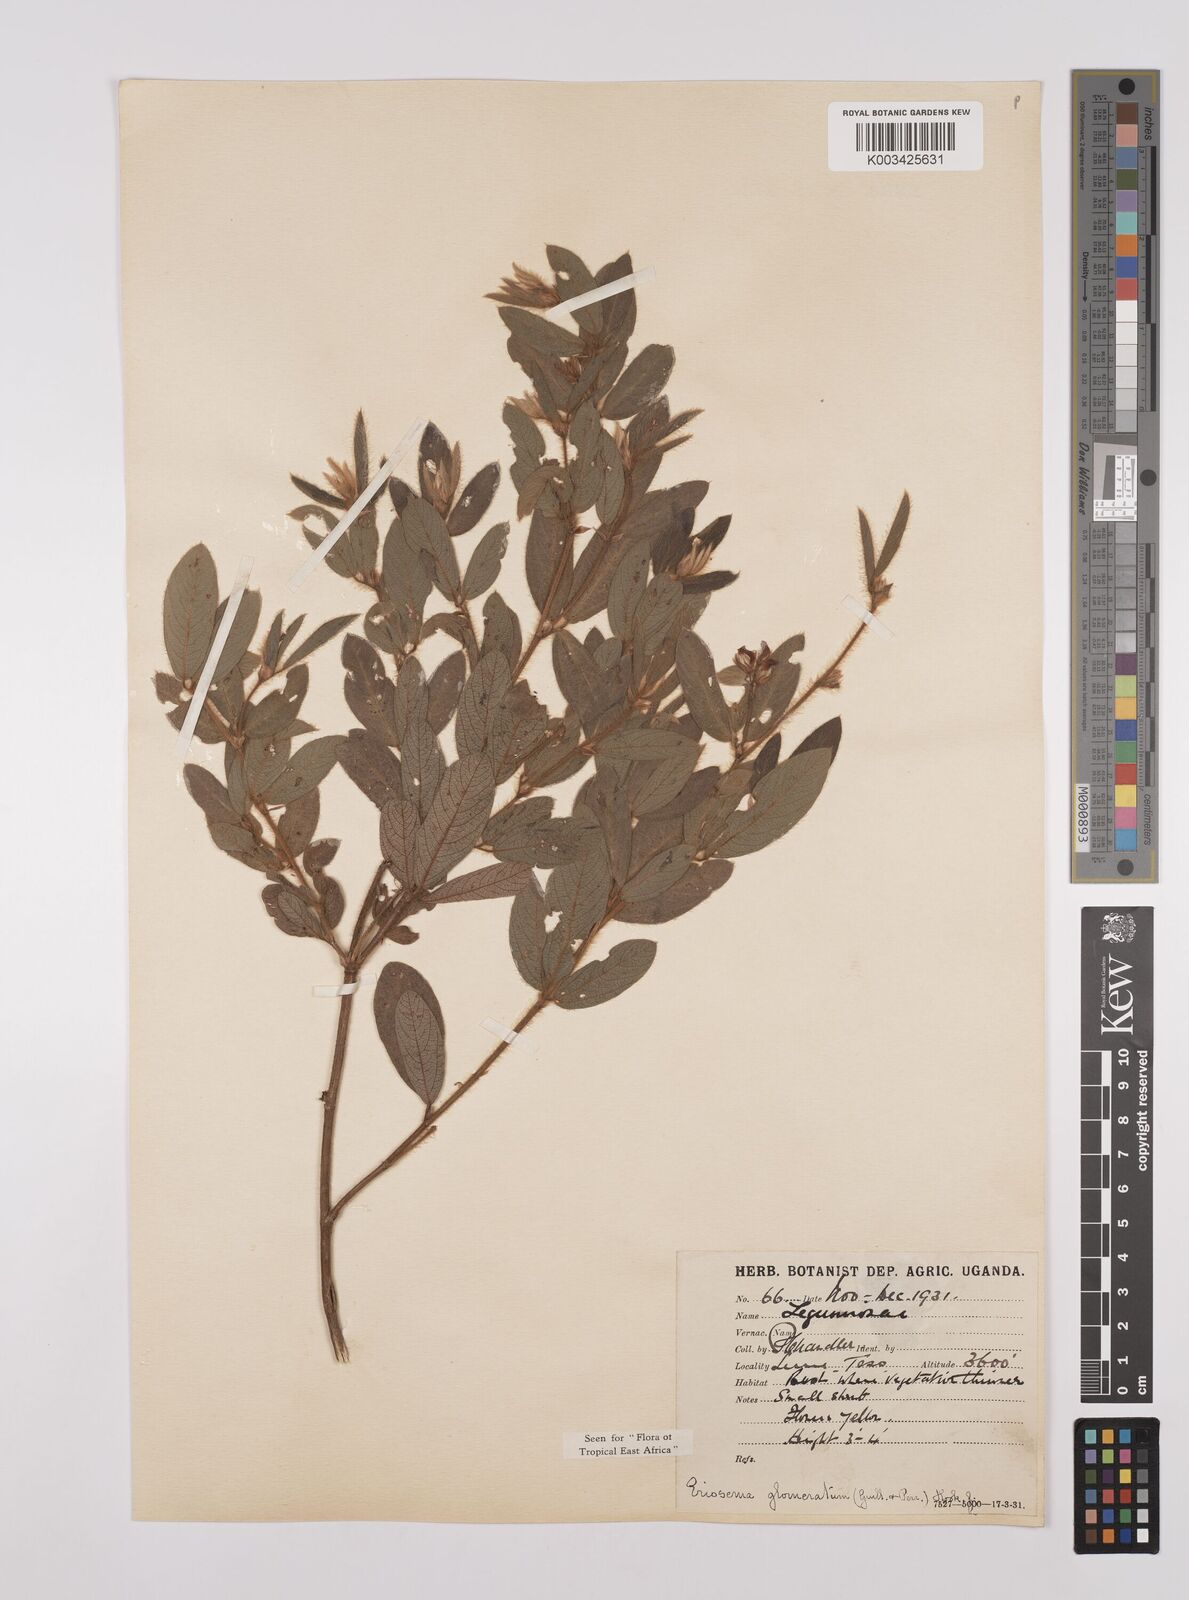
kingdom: Plantae
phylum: Tracheophyta
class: Magnoliopsida
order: Fabales
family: Fabaceae
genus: Eriosema
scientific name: Eriosema glomeratum
